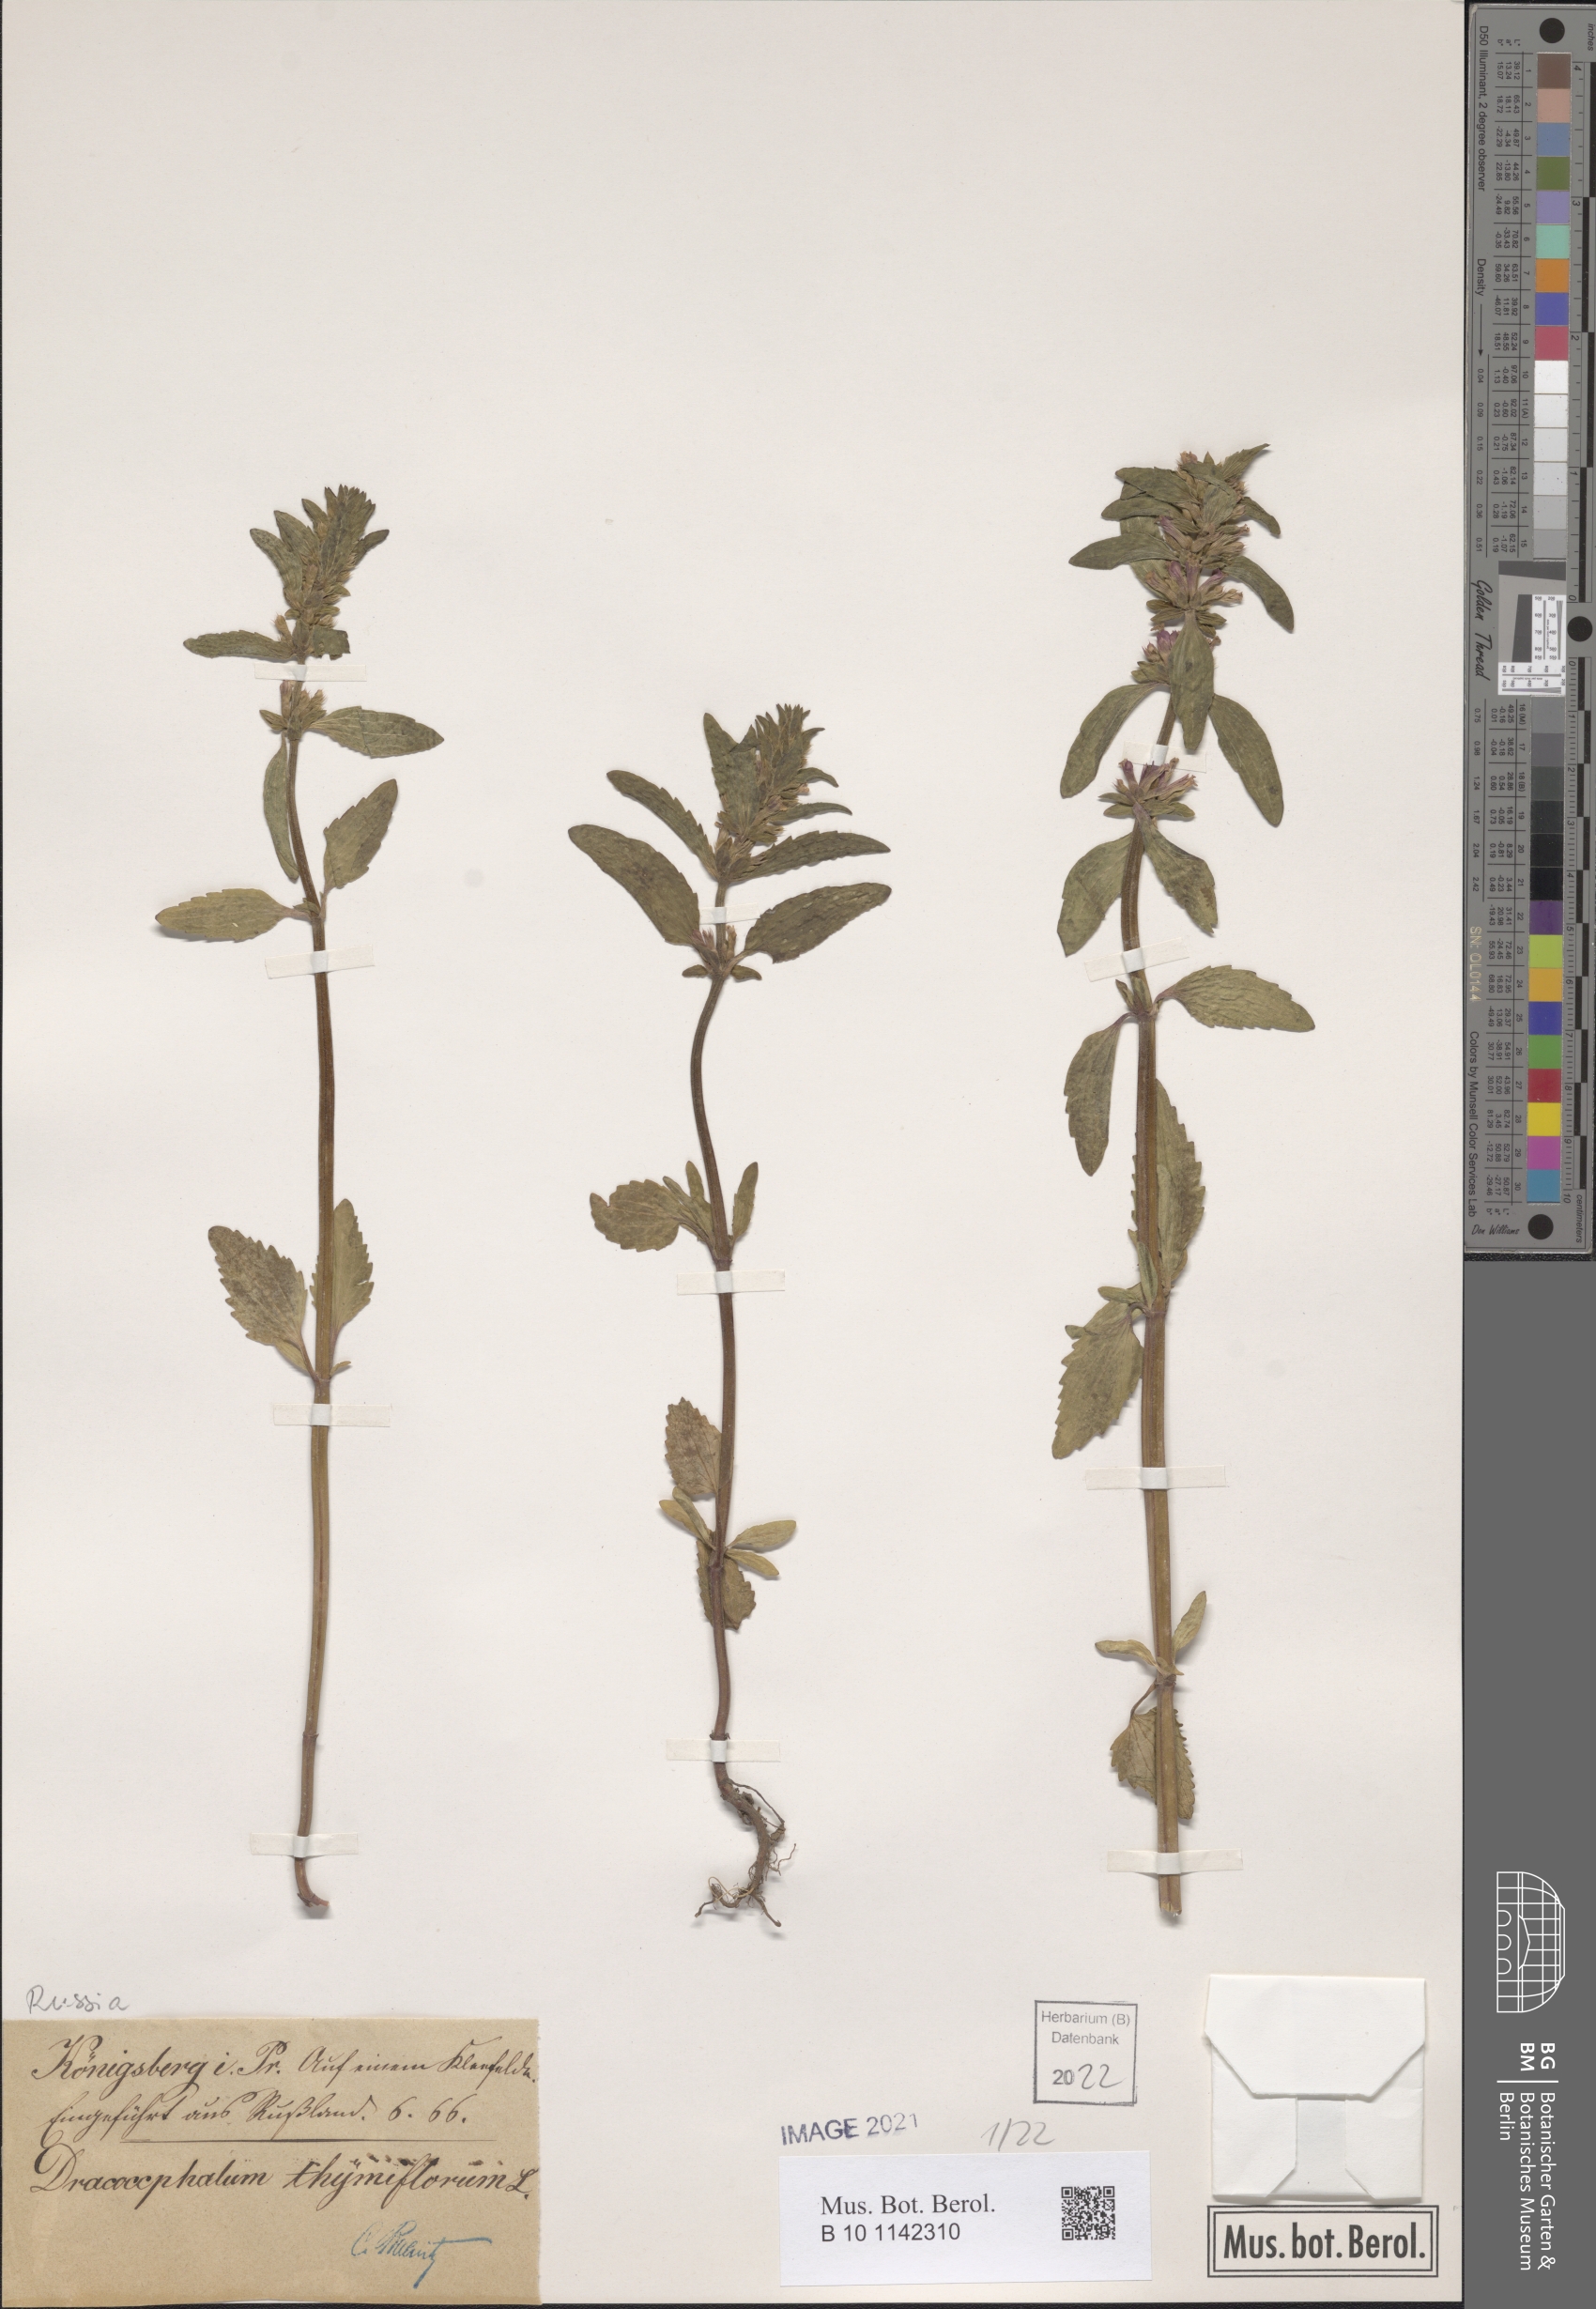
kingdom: Plantae
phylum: Tracheophyta
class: Magnoliopsida
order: Lamiales
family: Lamiaceae
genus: Dracocephalum
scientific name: Dracocephalum thymiflorum
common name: Thymeleaf dragonhead
